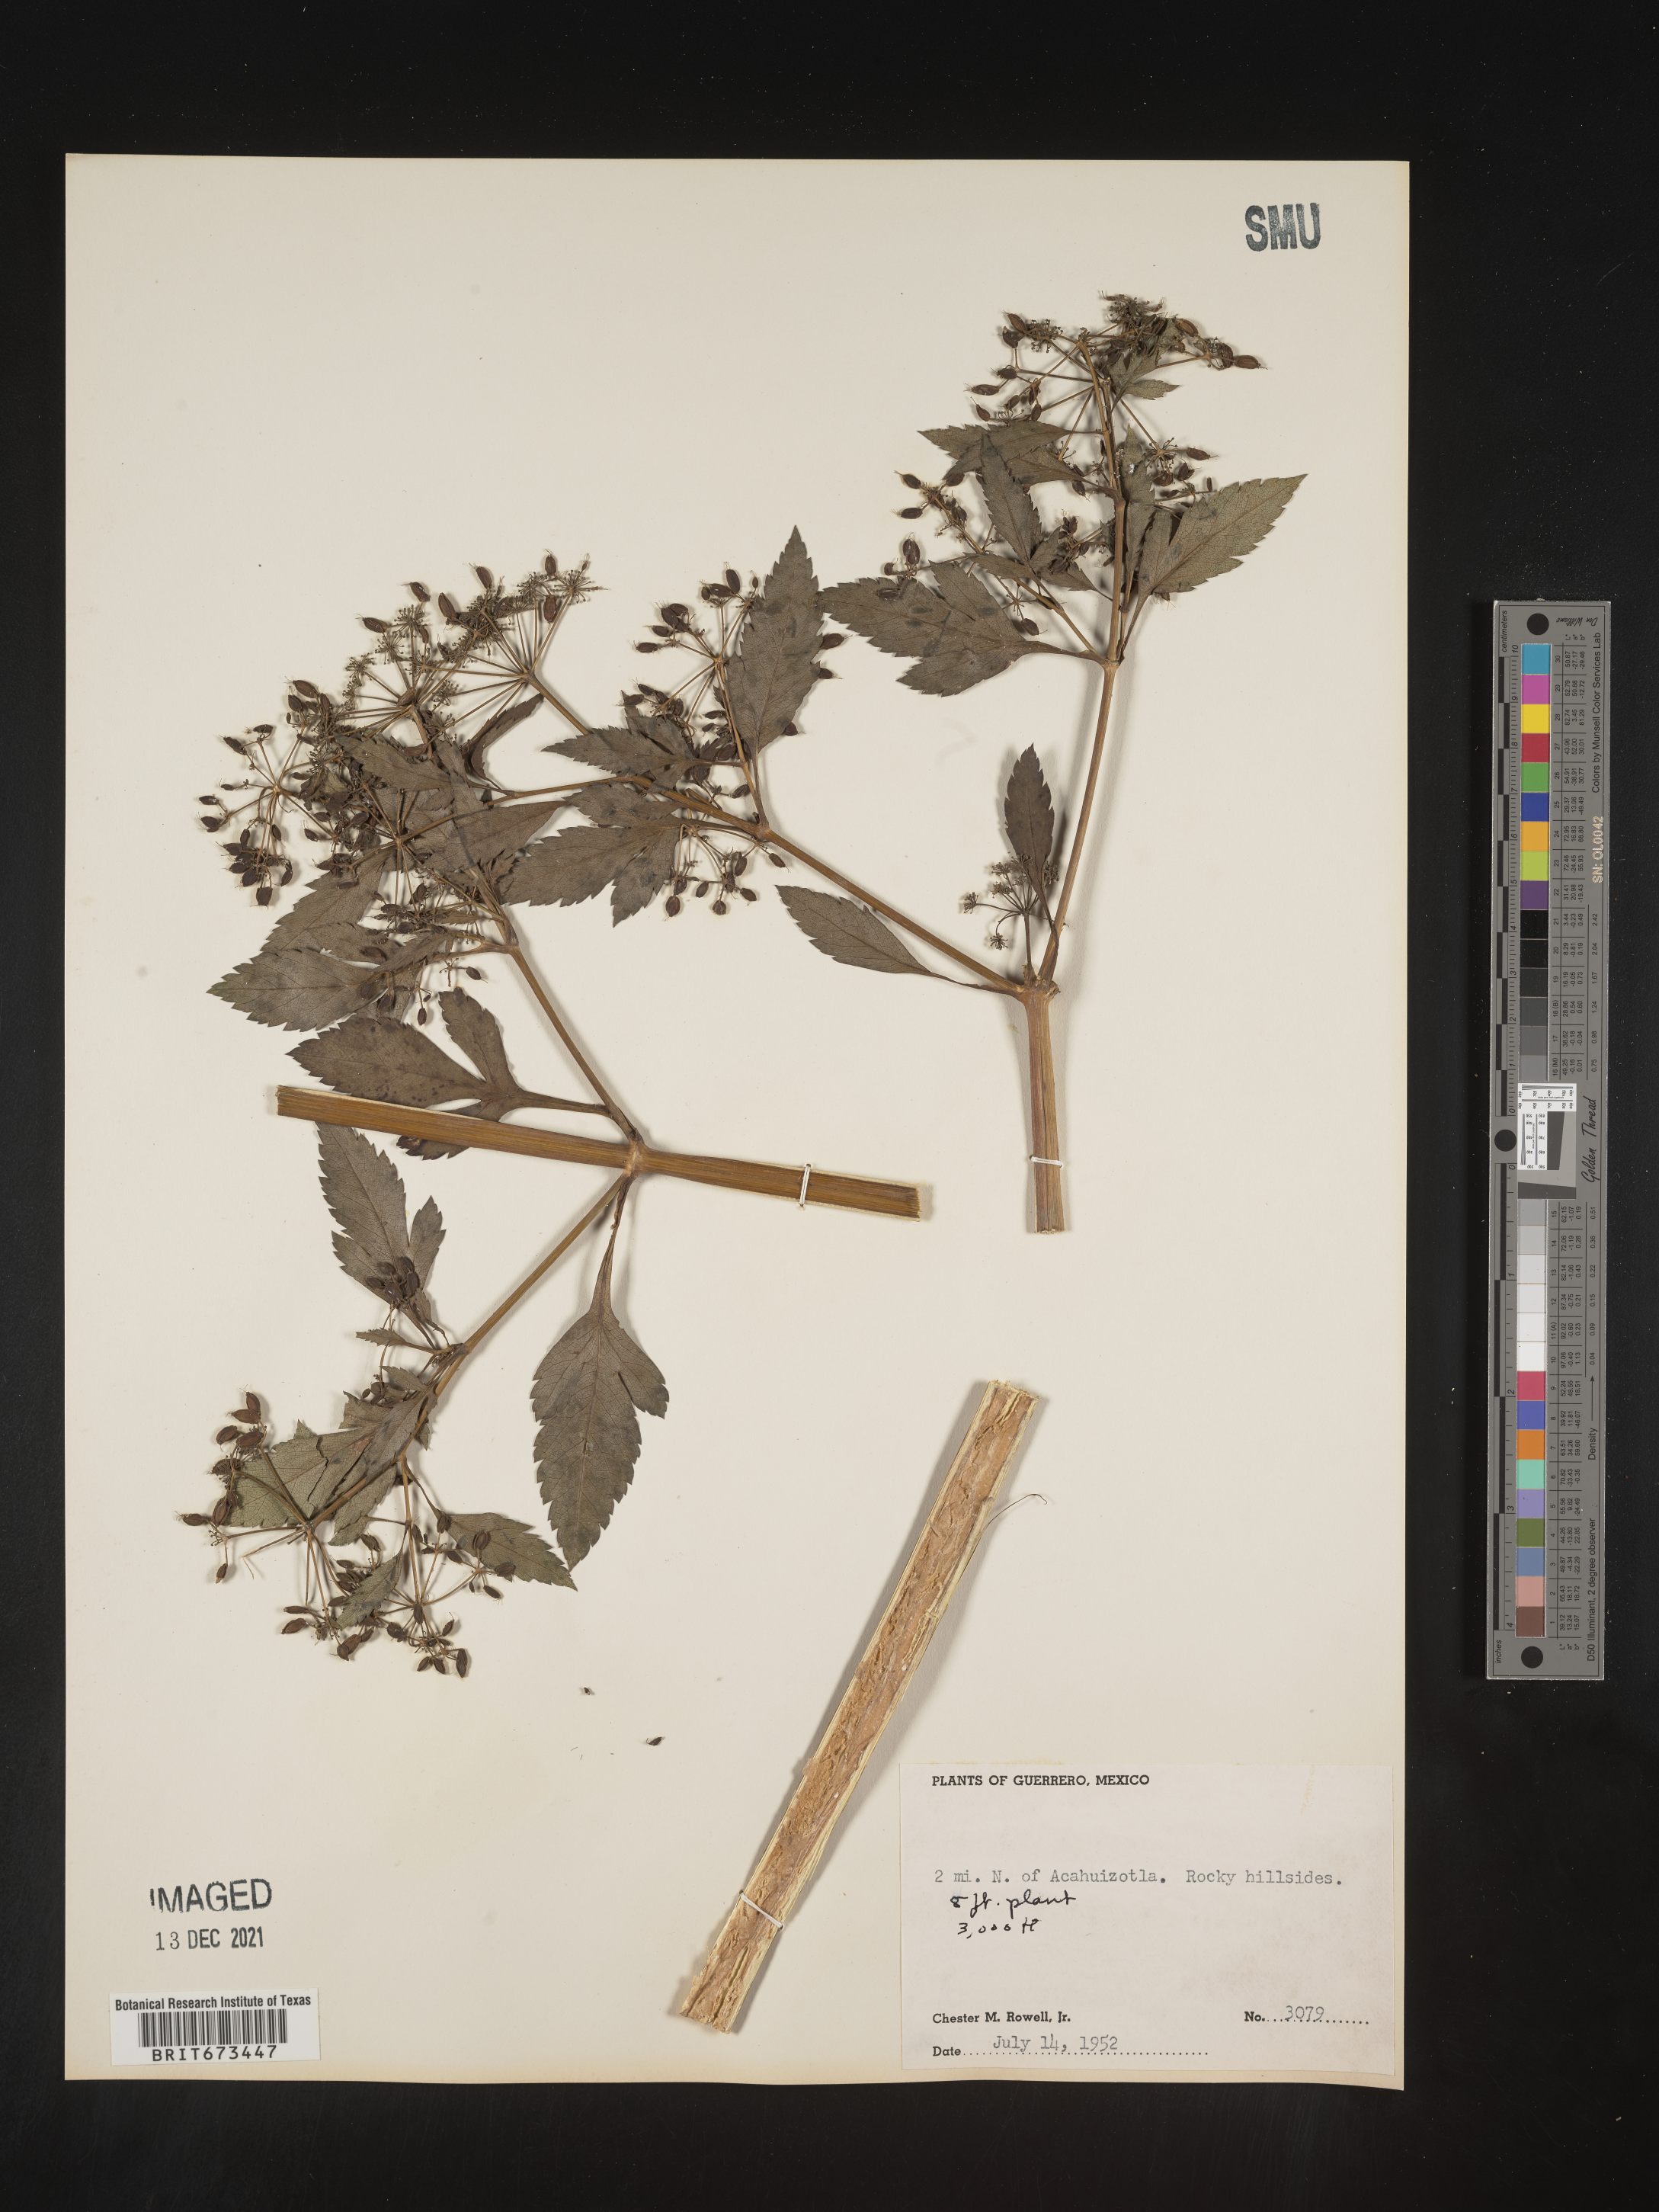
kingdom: Plantae
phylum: Tracheophyta
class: Magnoliopsida
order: Apiales
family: Apiaceae
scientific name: Apiaceae
